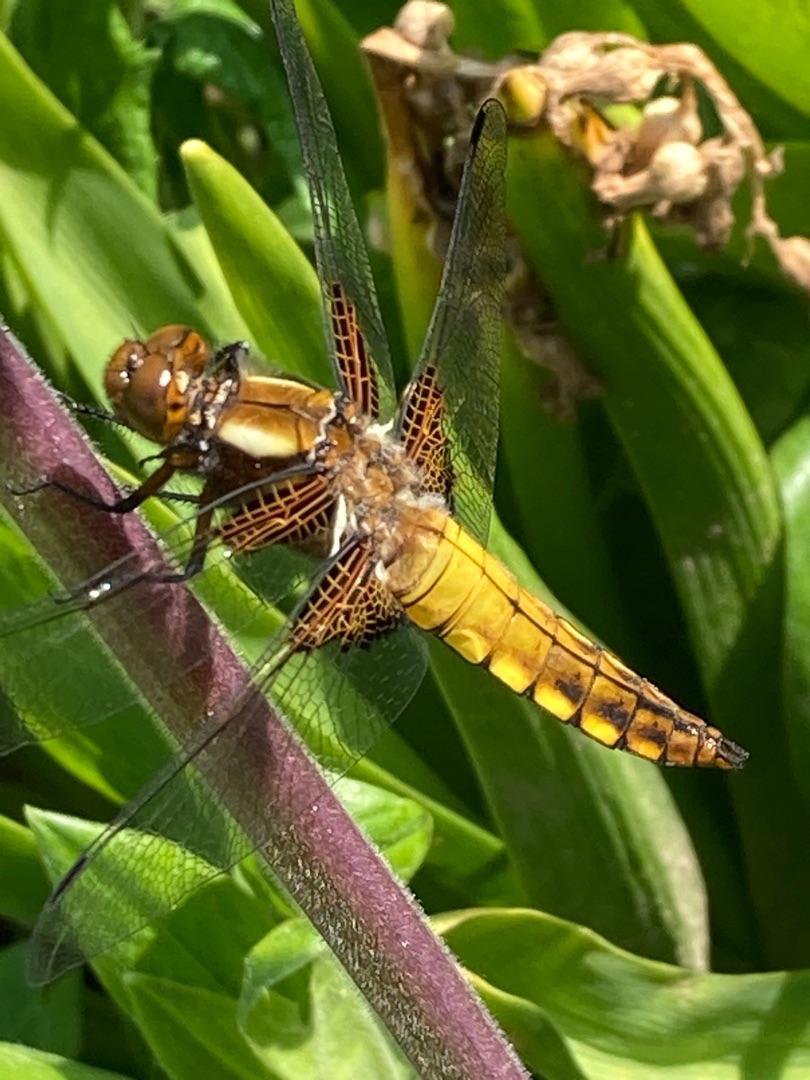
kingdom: Animalia
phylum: Arthropoda
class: Insecta
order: Odonata
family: Libellulidae
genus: Libellula
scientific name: Libellula depressa
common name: Blå libel
